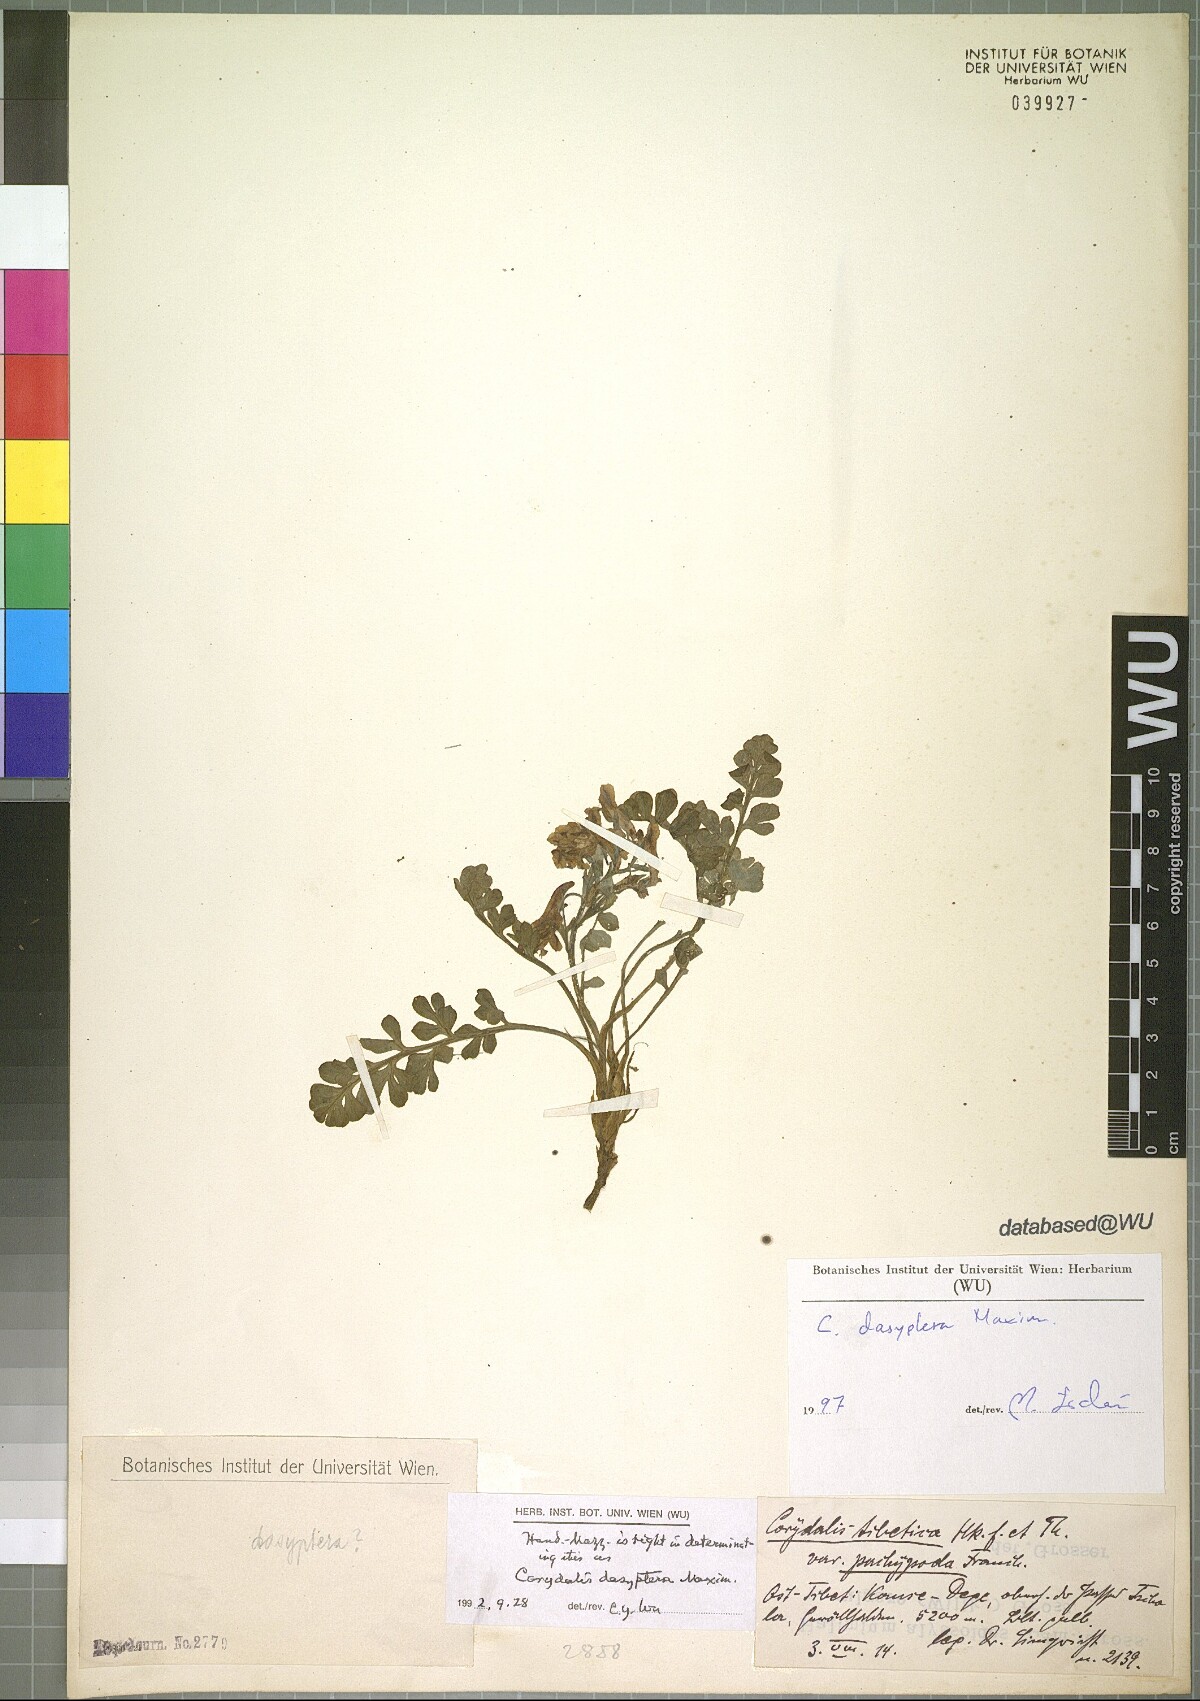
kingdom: Plantae
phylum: Tracheophyta
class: Magnoliopsida
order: Ranunculales
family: Papaveraceae
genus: Corydalis
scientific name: Corydalis dasyptera
